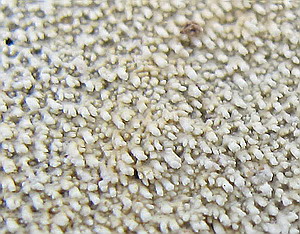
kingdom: Fungi
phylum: Basidiomycota
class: Agaricomycetes
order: Cantharellales
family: Botryobasidiaceae
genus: Botryobasidium
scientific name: Botryobasidium conspersum
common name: olivengrå spindhinde
